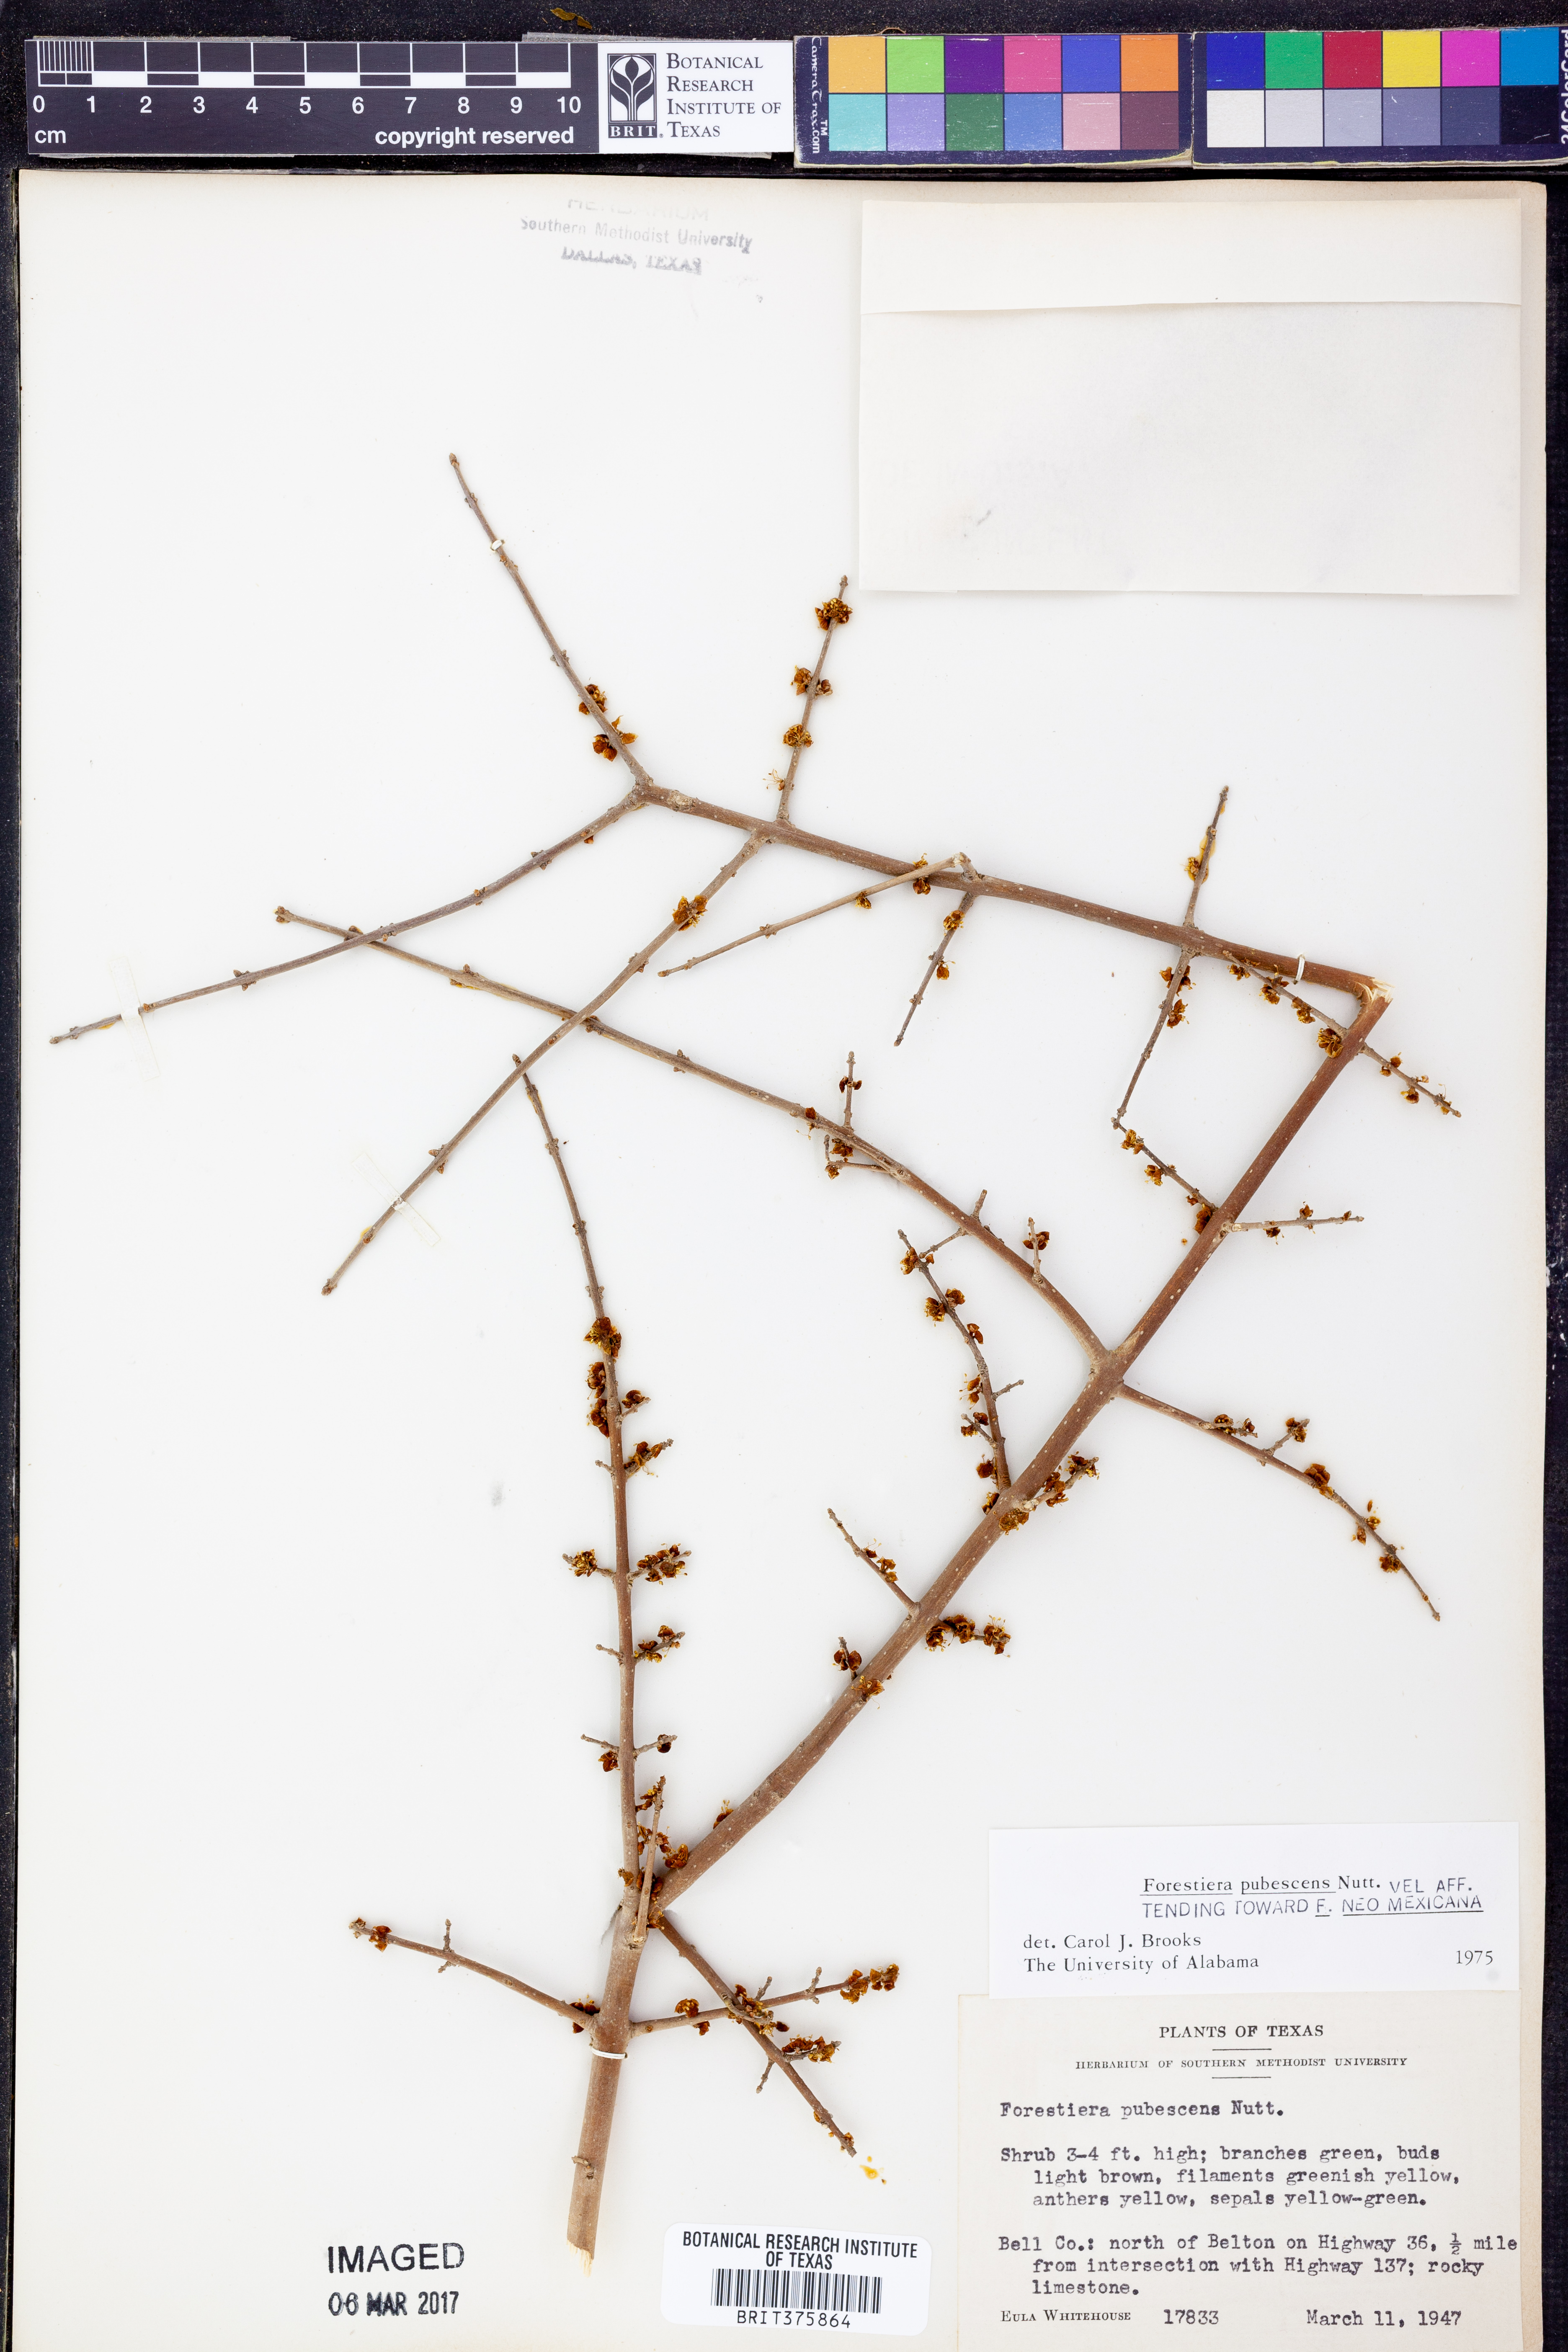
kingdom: Plantae
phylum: Tracheophyta
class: Magnoliopsida
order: Lamiales
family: Oleaceae
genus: Forestiera
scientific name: Forestiera pubescens
